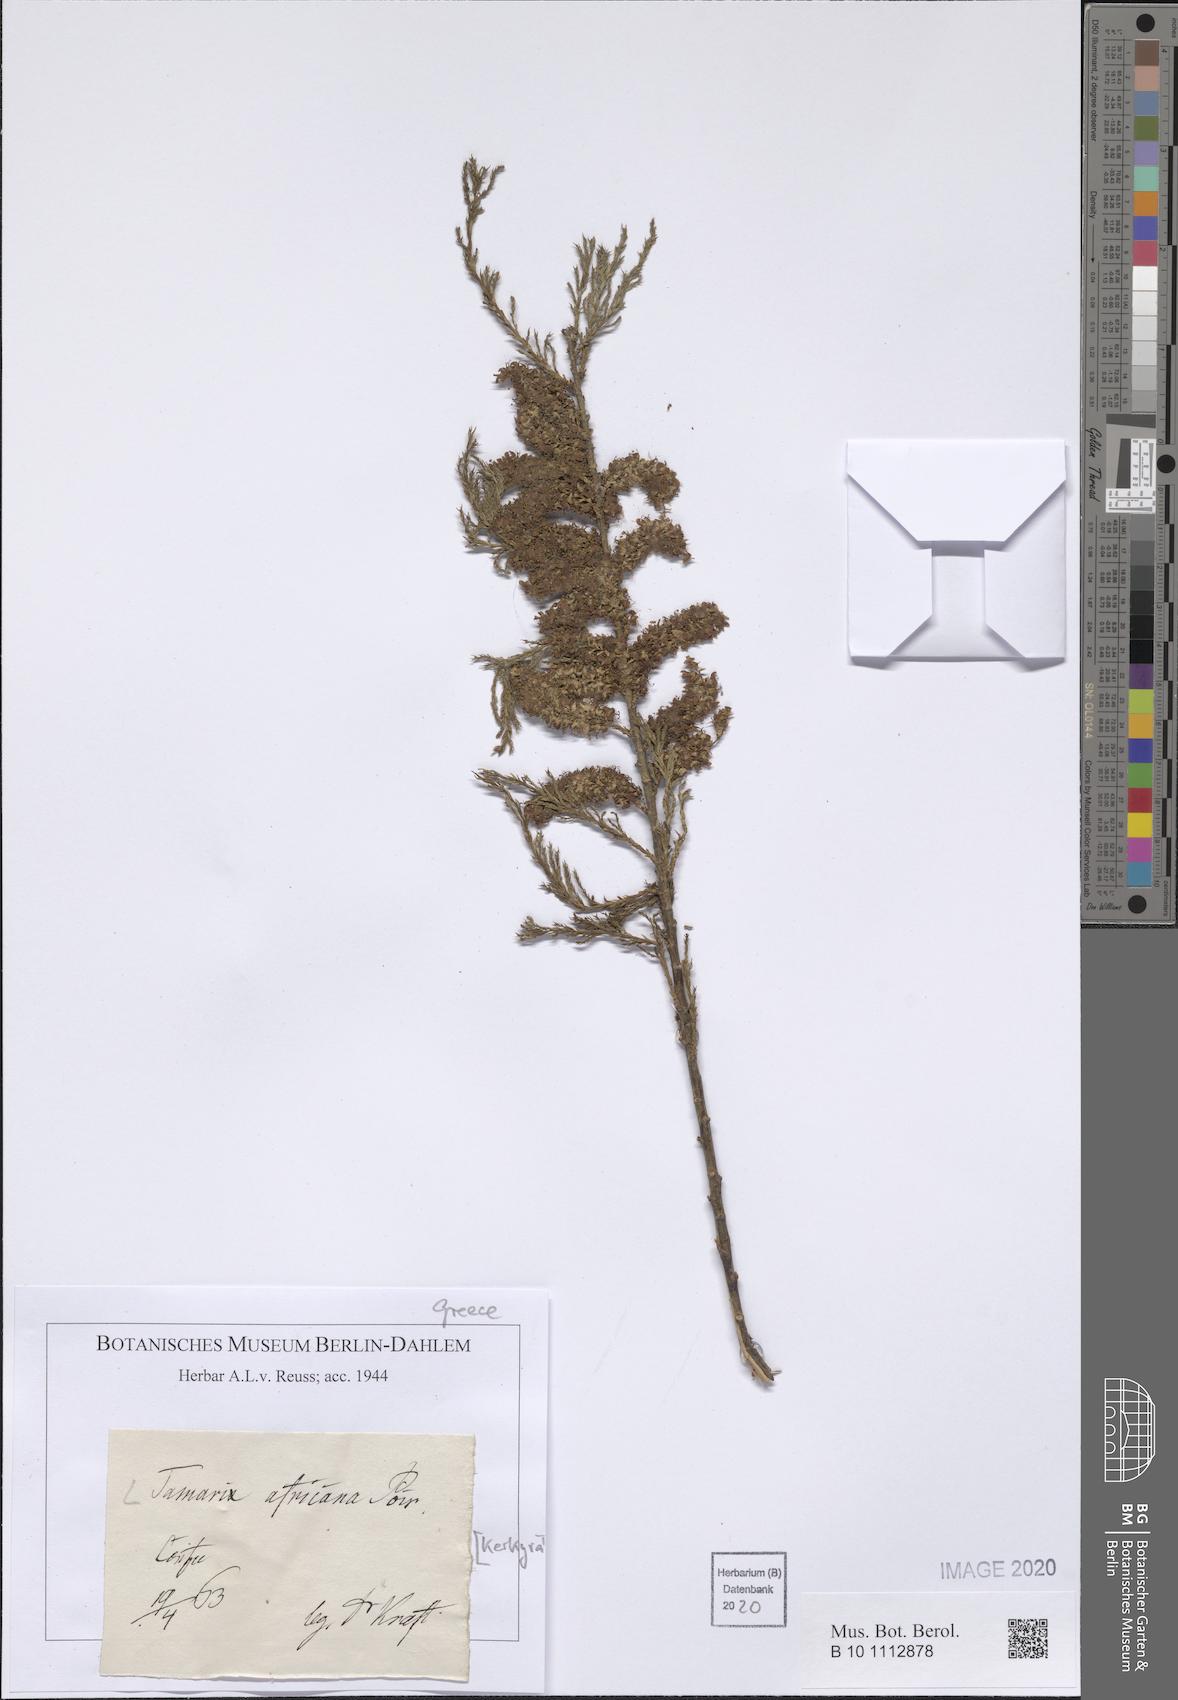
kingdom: Plantae
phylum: Tracheophyta
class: Magnoliopsida
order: Caryophyllales
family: Tamaricaceae
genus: Tamarix
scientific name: Tamarix africana
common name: African tamarisk
